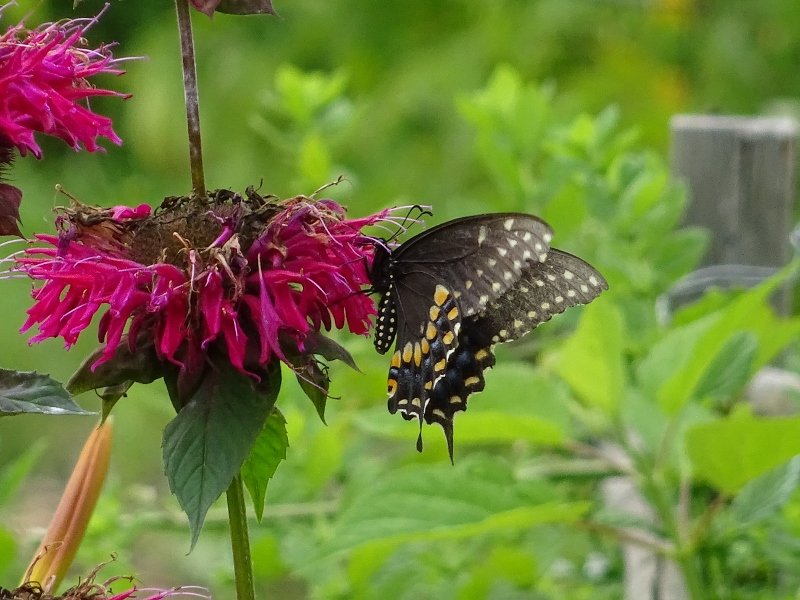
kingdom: Animalia
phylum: Arthropoda
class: Insecta
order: Lepidoptera
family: Papilionidae
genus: Papilio
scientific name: Papilio polyxenes
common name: Black Swallowtail
